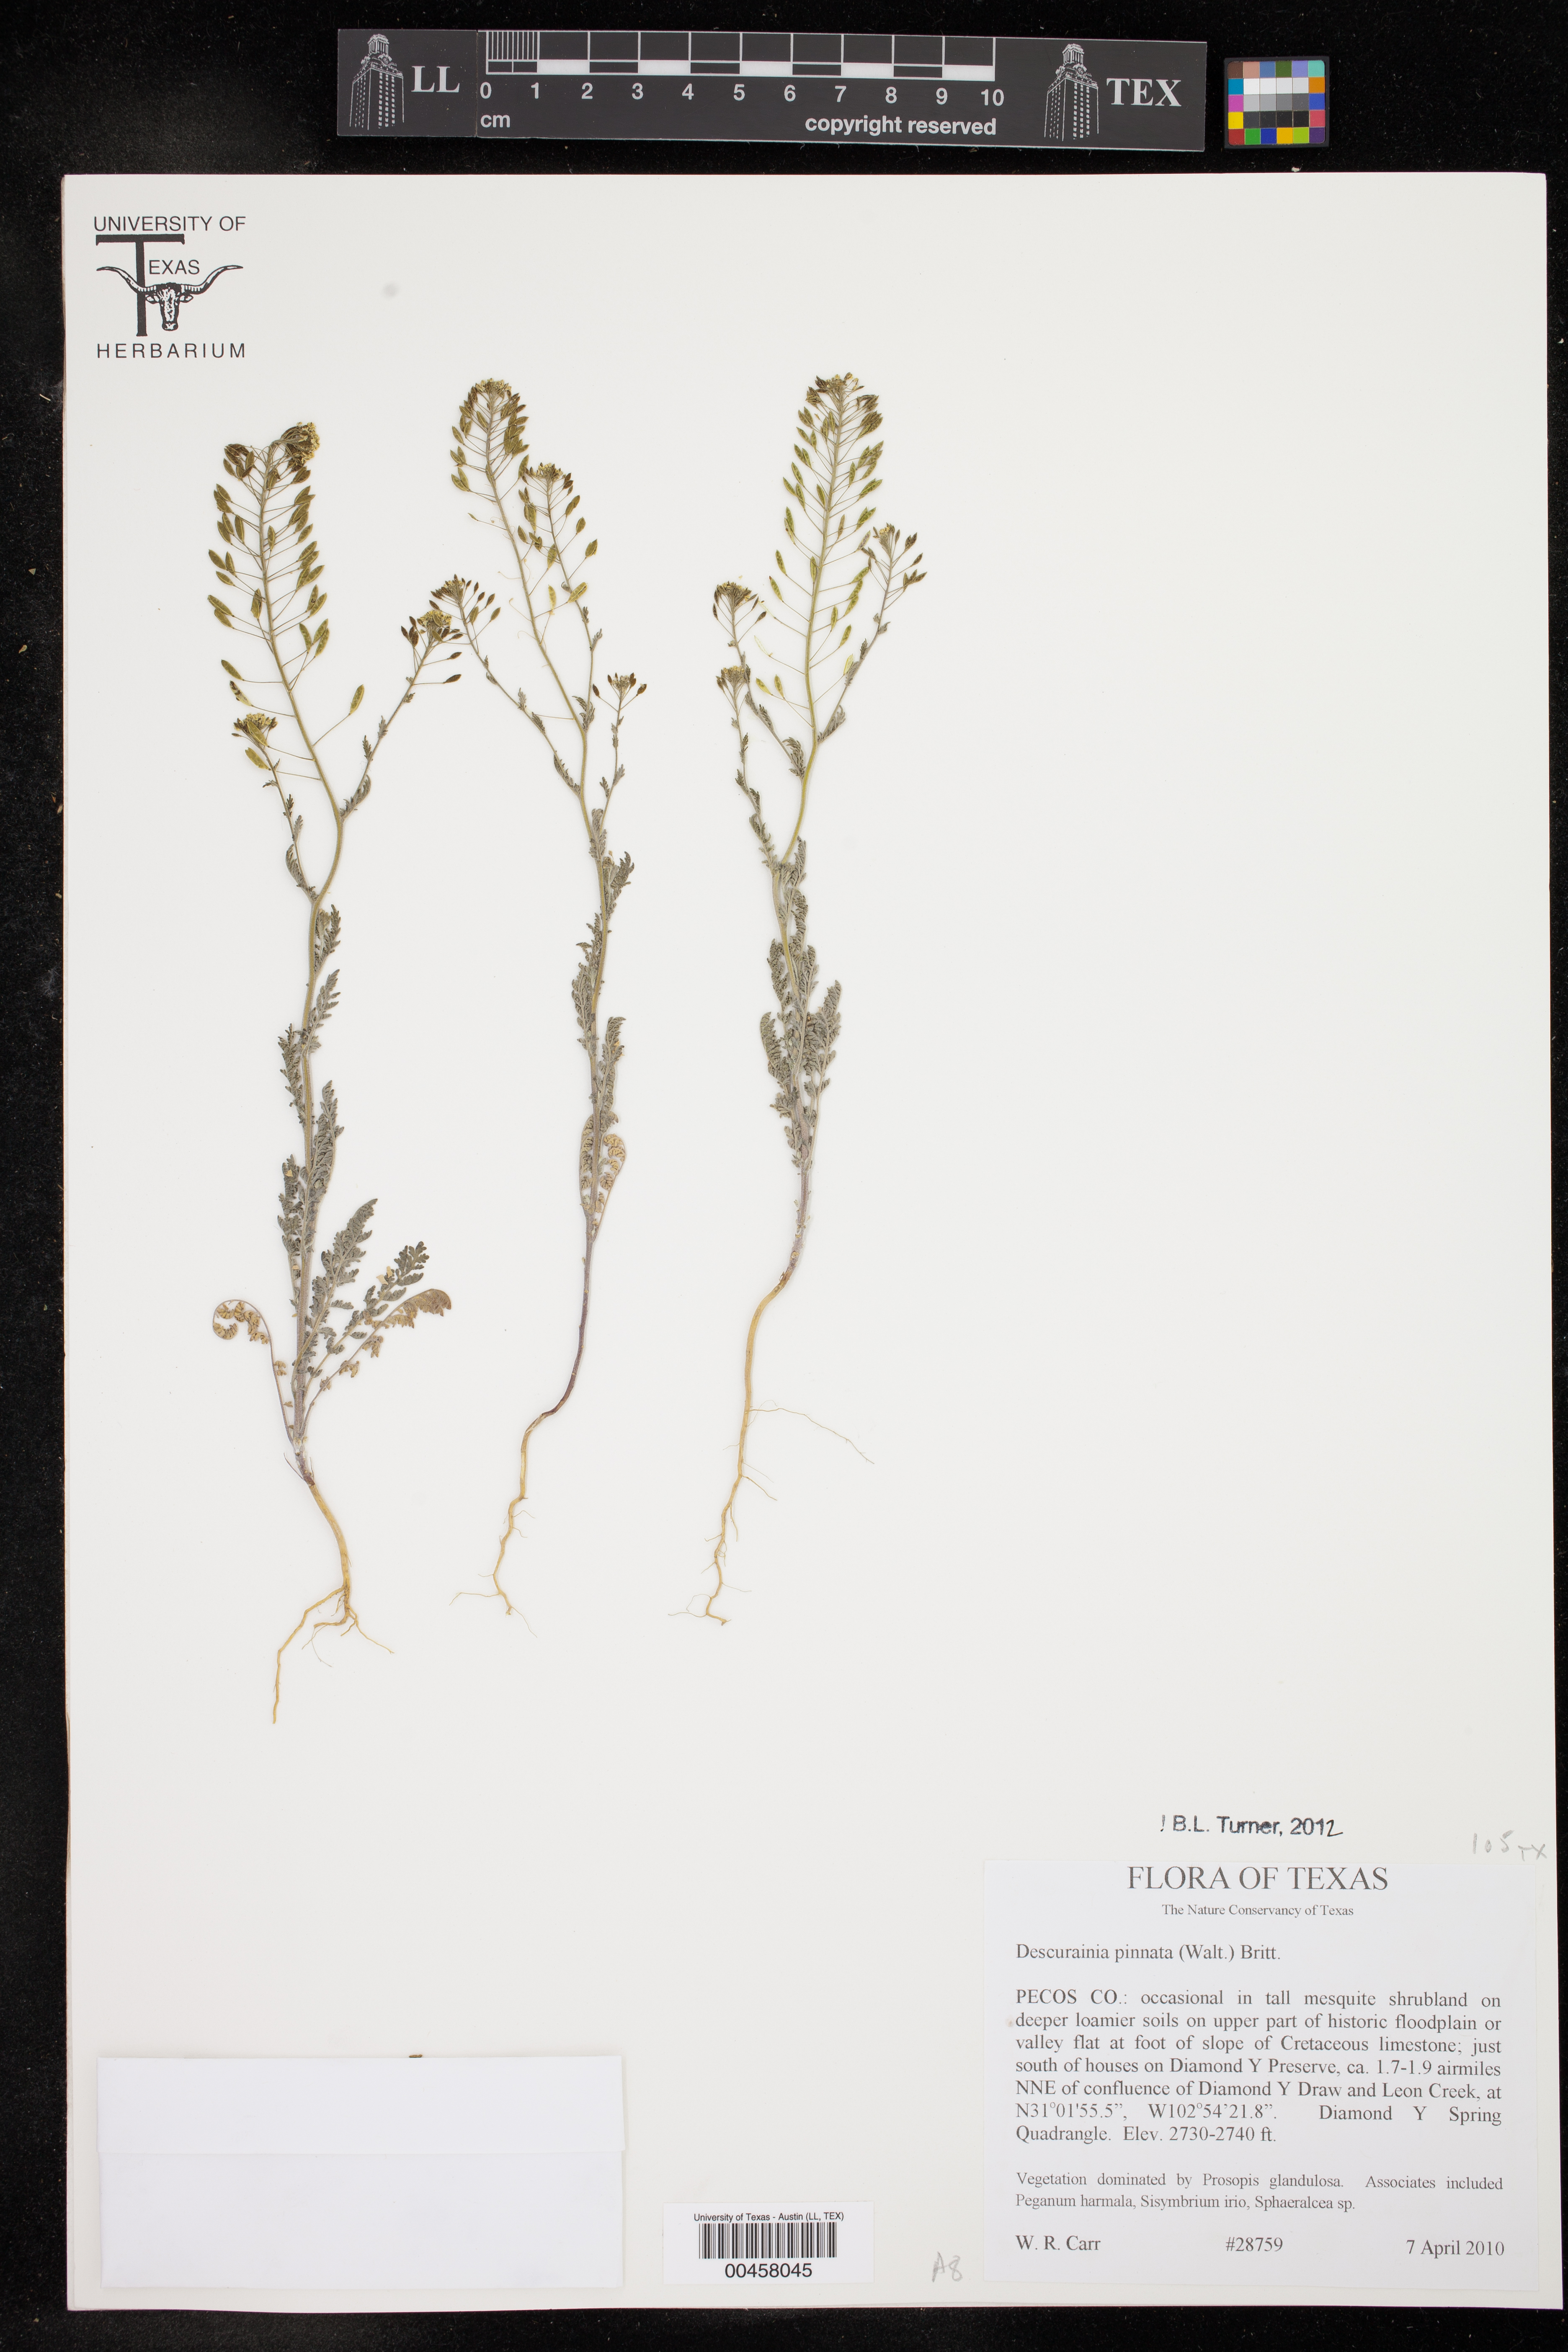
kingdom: Plantae
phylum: Tracheophyta
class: Magnoliopsida
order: Brassicales
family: Brassicaceae
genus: Descurainia
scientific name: Descurainia pinnata
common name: Western tansy mustard
